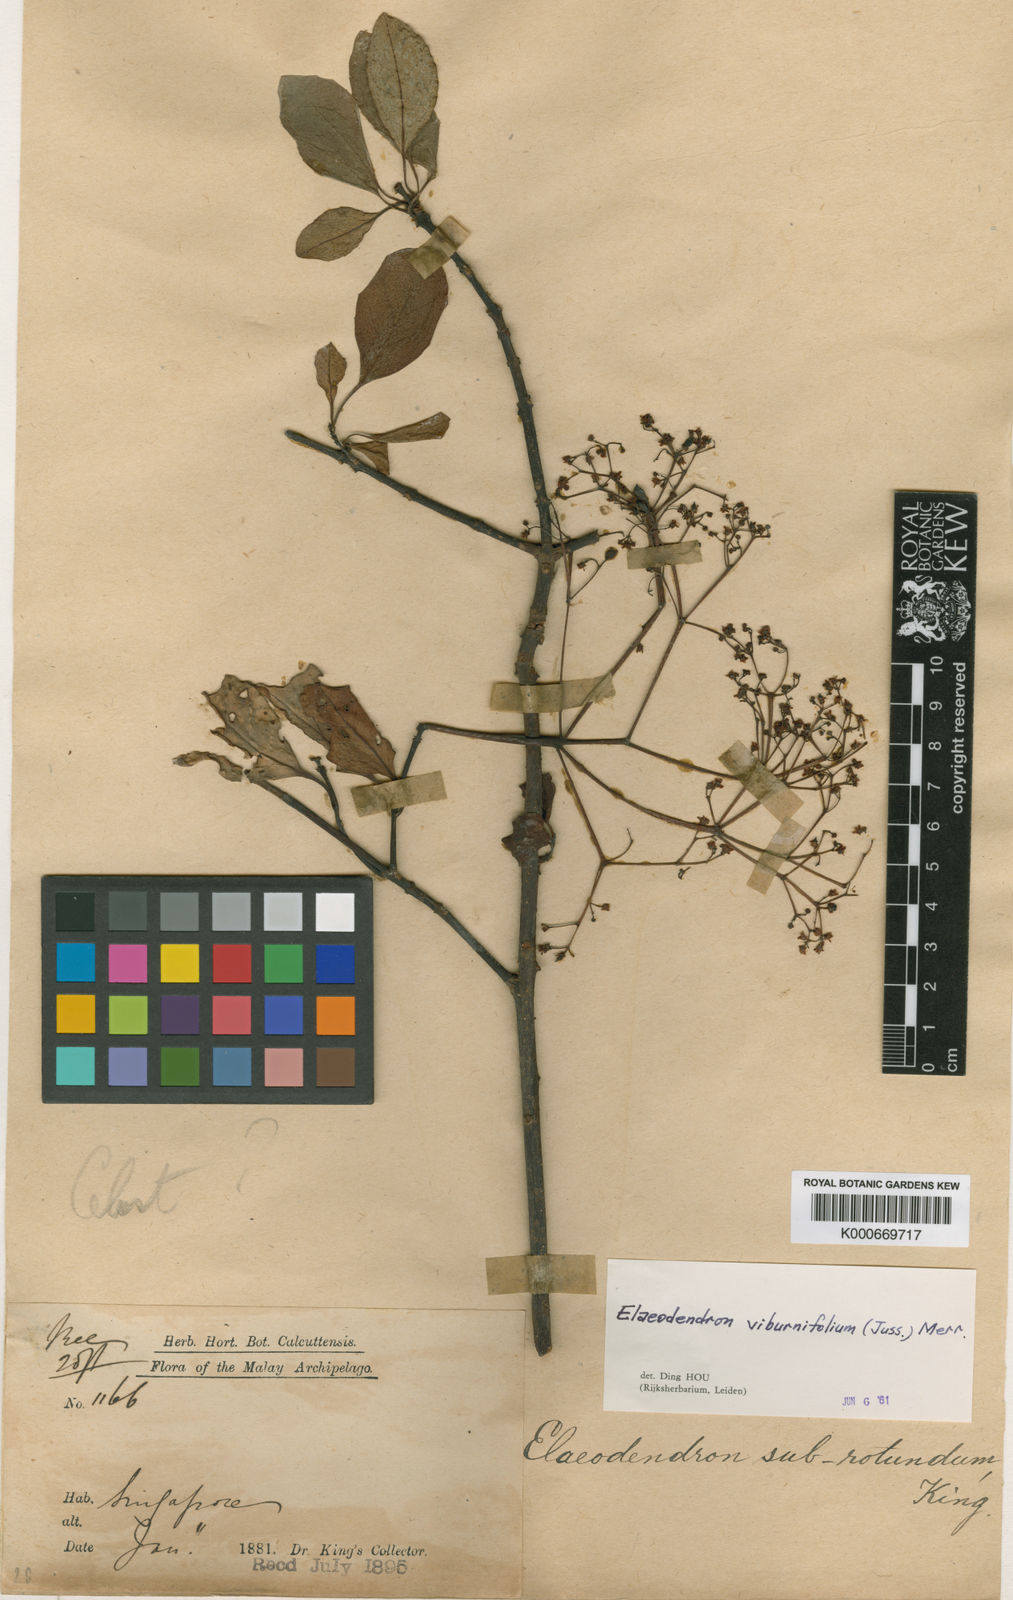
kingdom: Plantae
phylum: Tracheophyta
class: Magnoliopsida
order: Celastrales
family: Celastraceae
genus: Elaeodendron
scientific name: Elaeodendron viburnifolium
